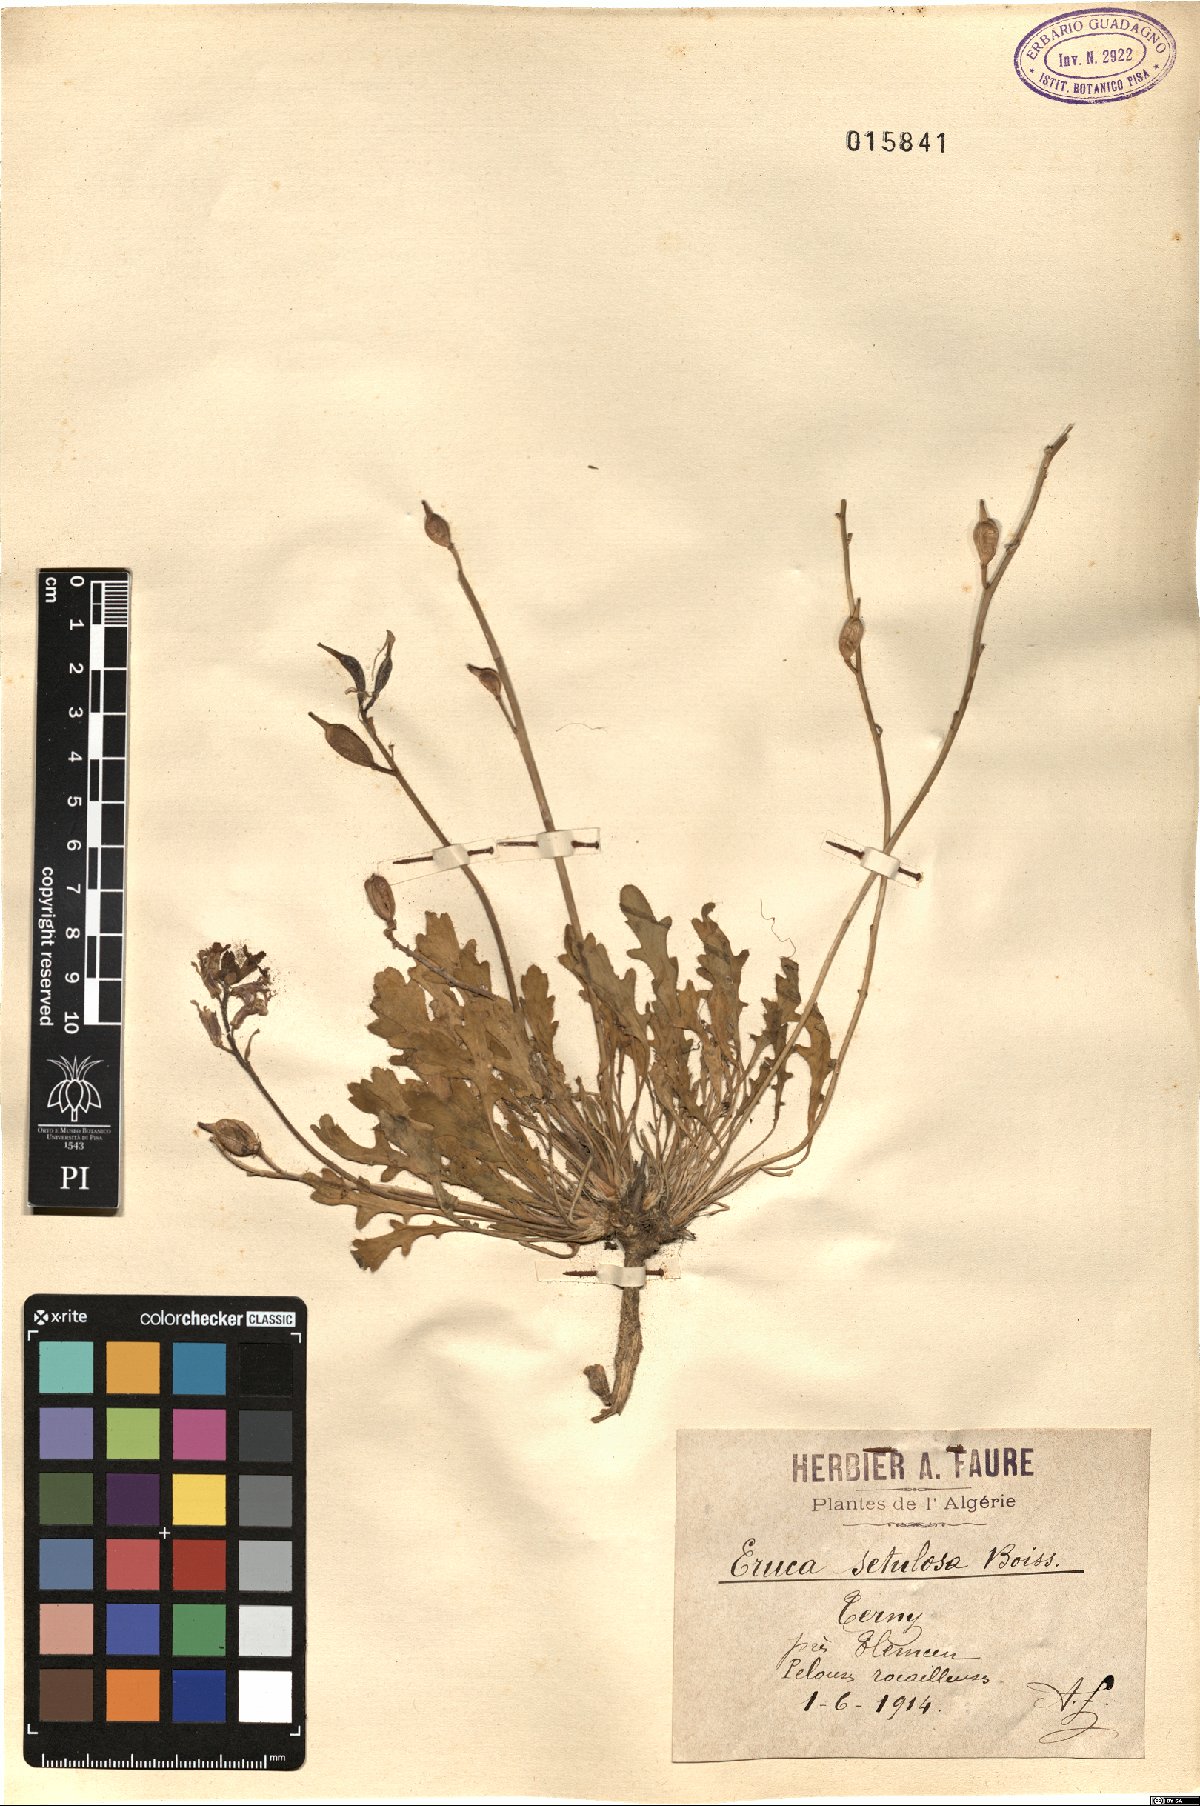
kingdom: Plantae
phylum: Tracheophyta
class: Magnoliopsida
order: Brassicales
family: Brassicaceae
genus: Eruca
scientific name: Eruca setulosa
